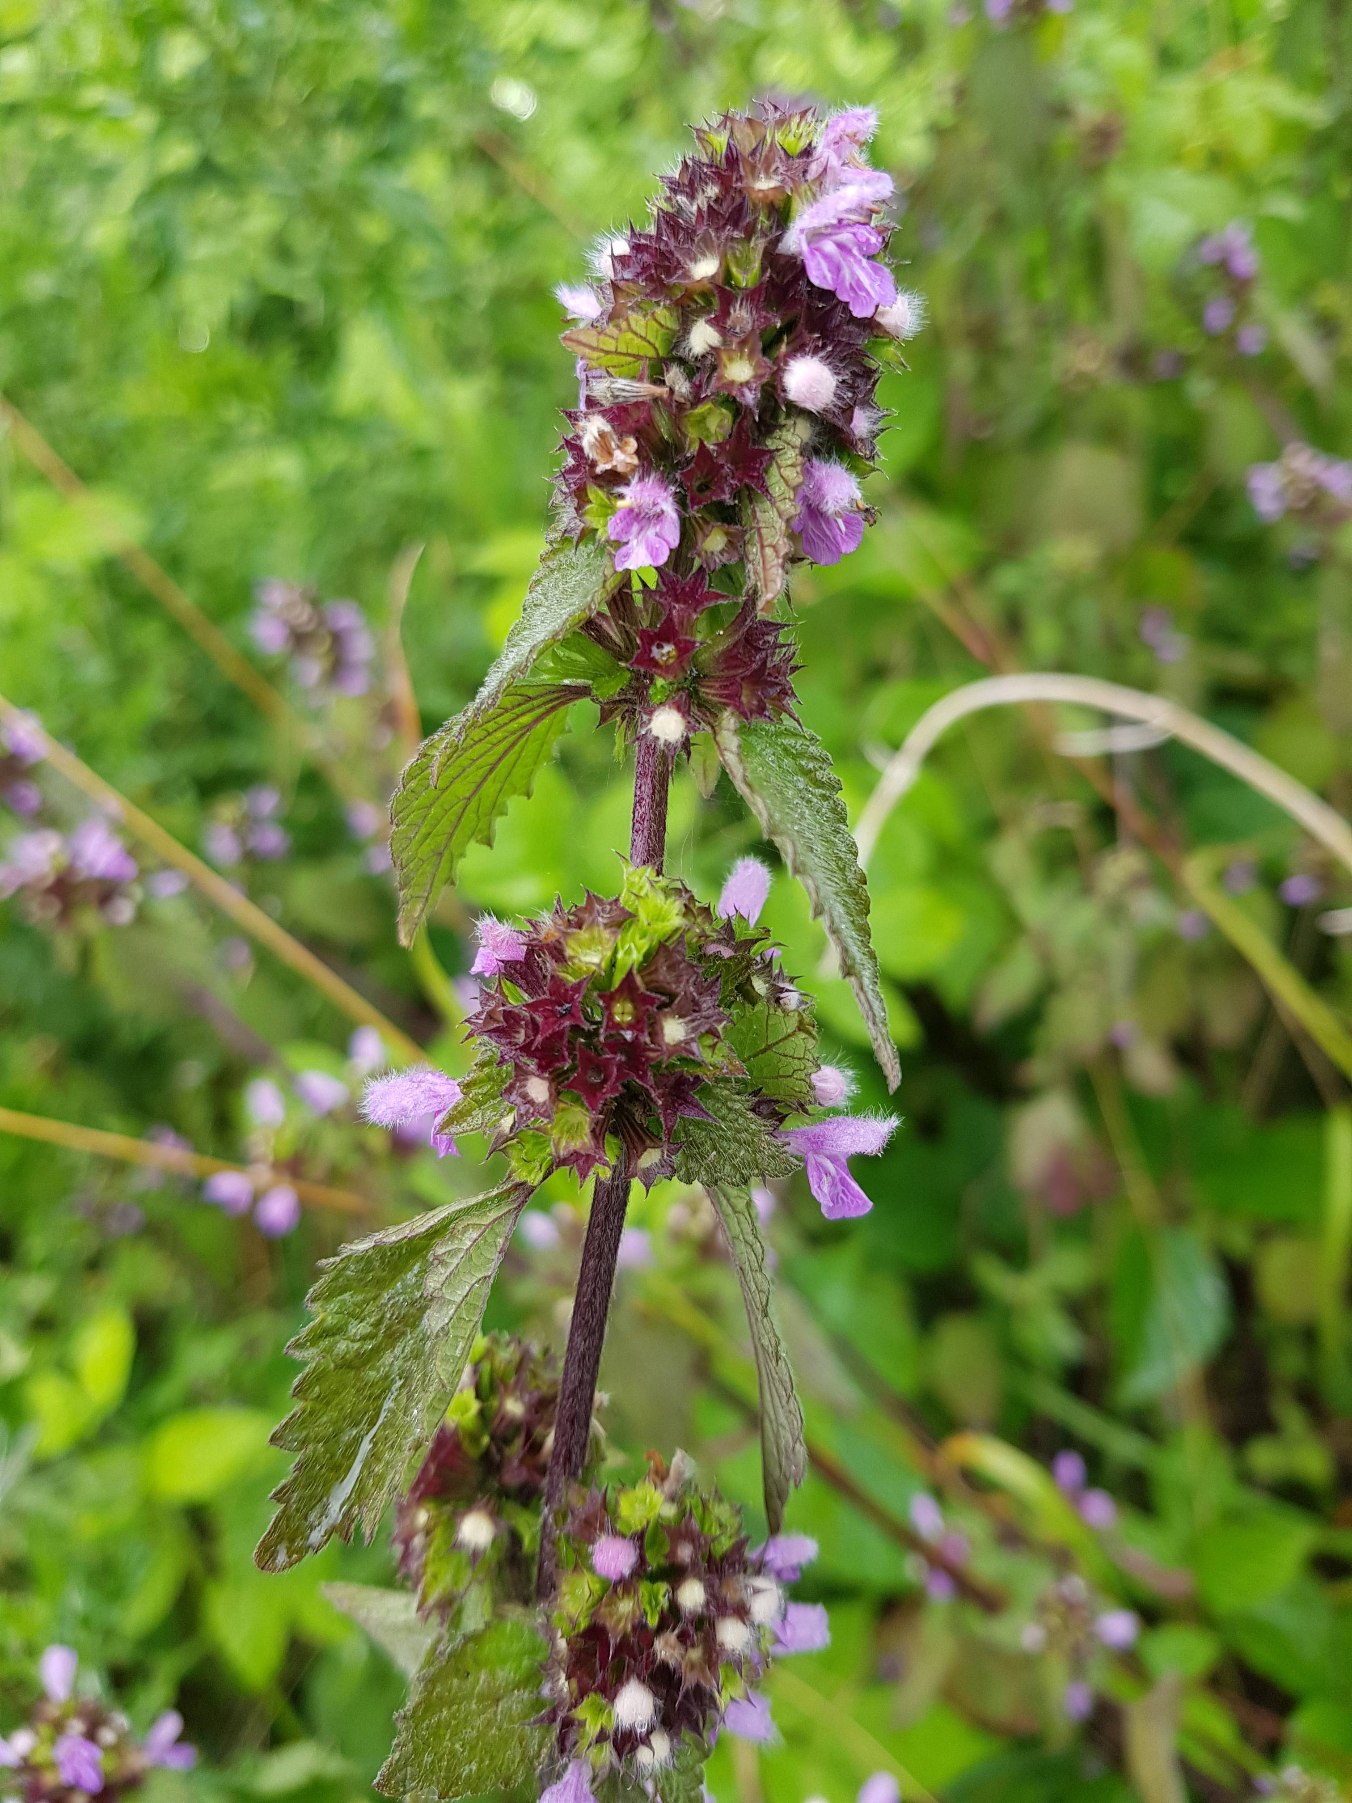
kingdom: Plantae
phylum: Tracheophyta
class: Magnoliopsida
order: Lamiales
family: Lamiaceae
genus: Ballota
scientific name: Ballota nigra
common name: Tandbæger
